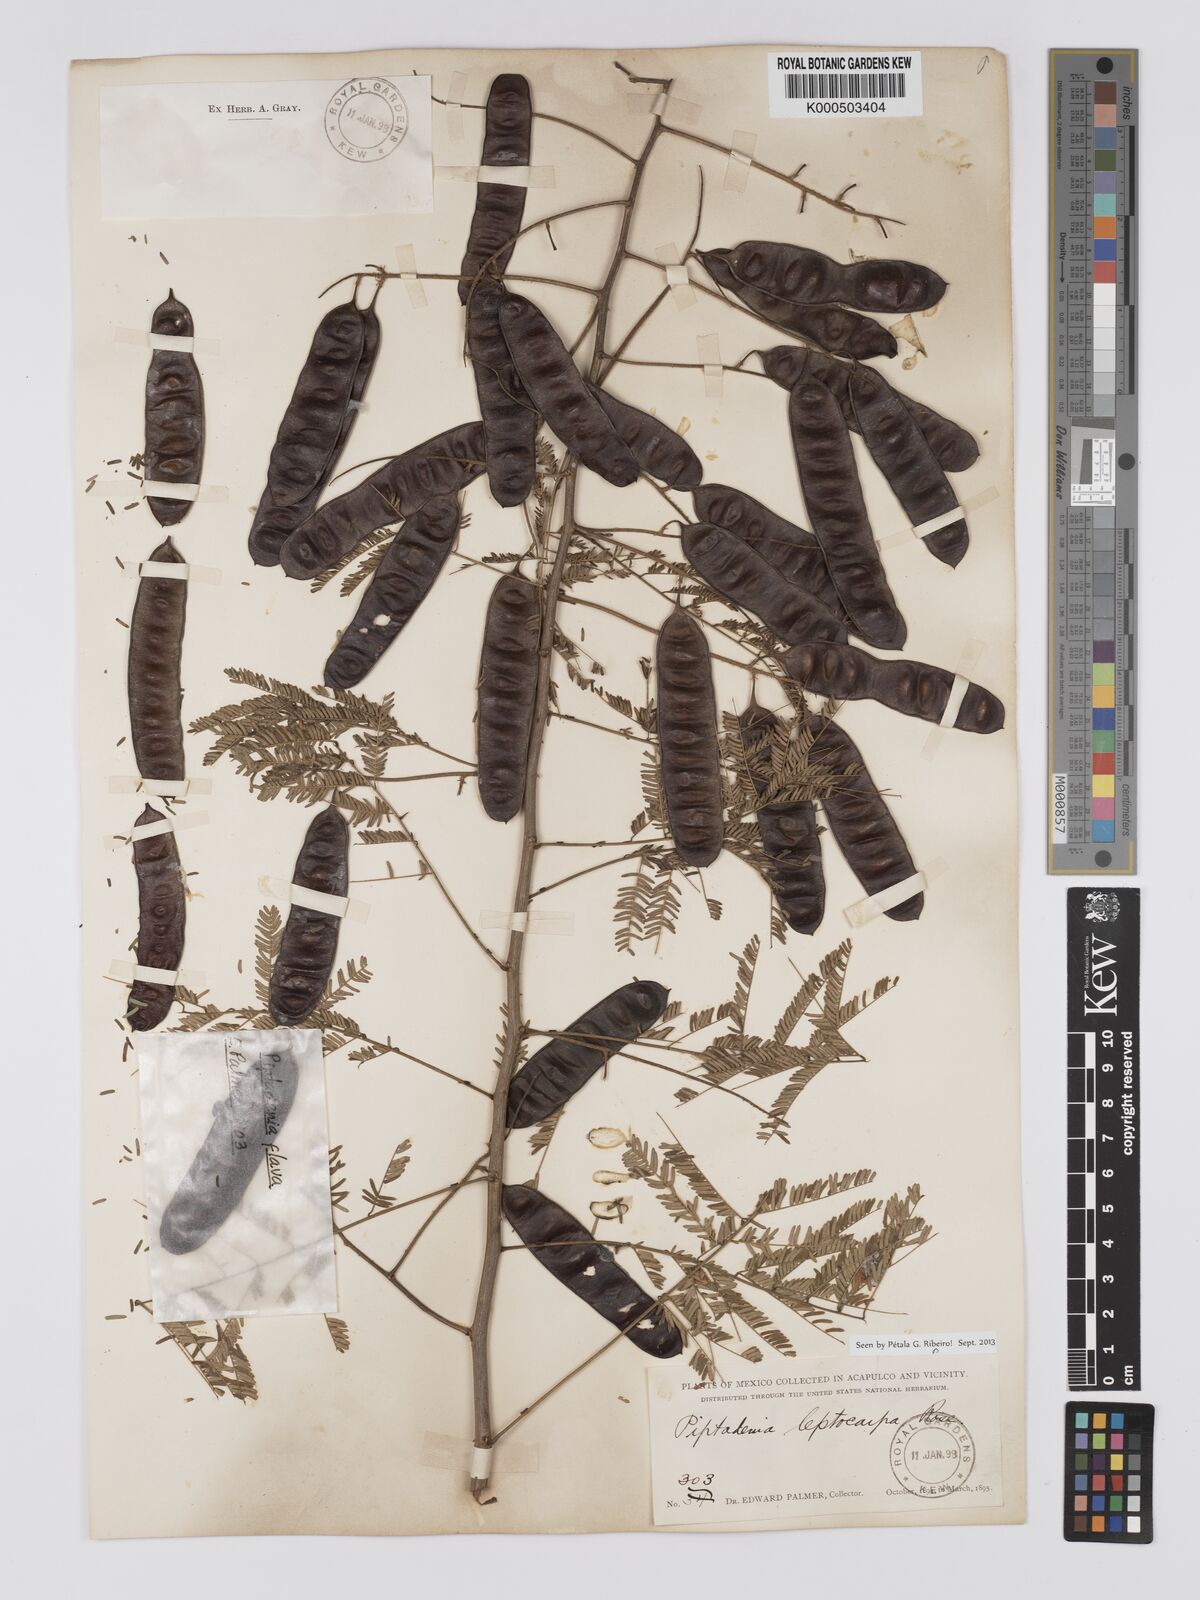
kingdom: Plantae
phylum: Tracheophyta
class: Magnoliopsida
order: Fabales
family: Fabaceae
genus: Piptadenia
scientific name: Piptadenia retusa
